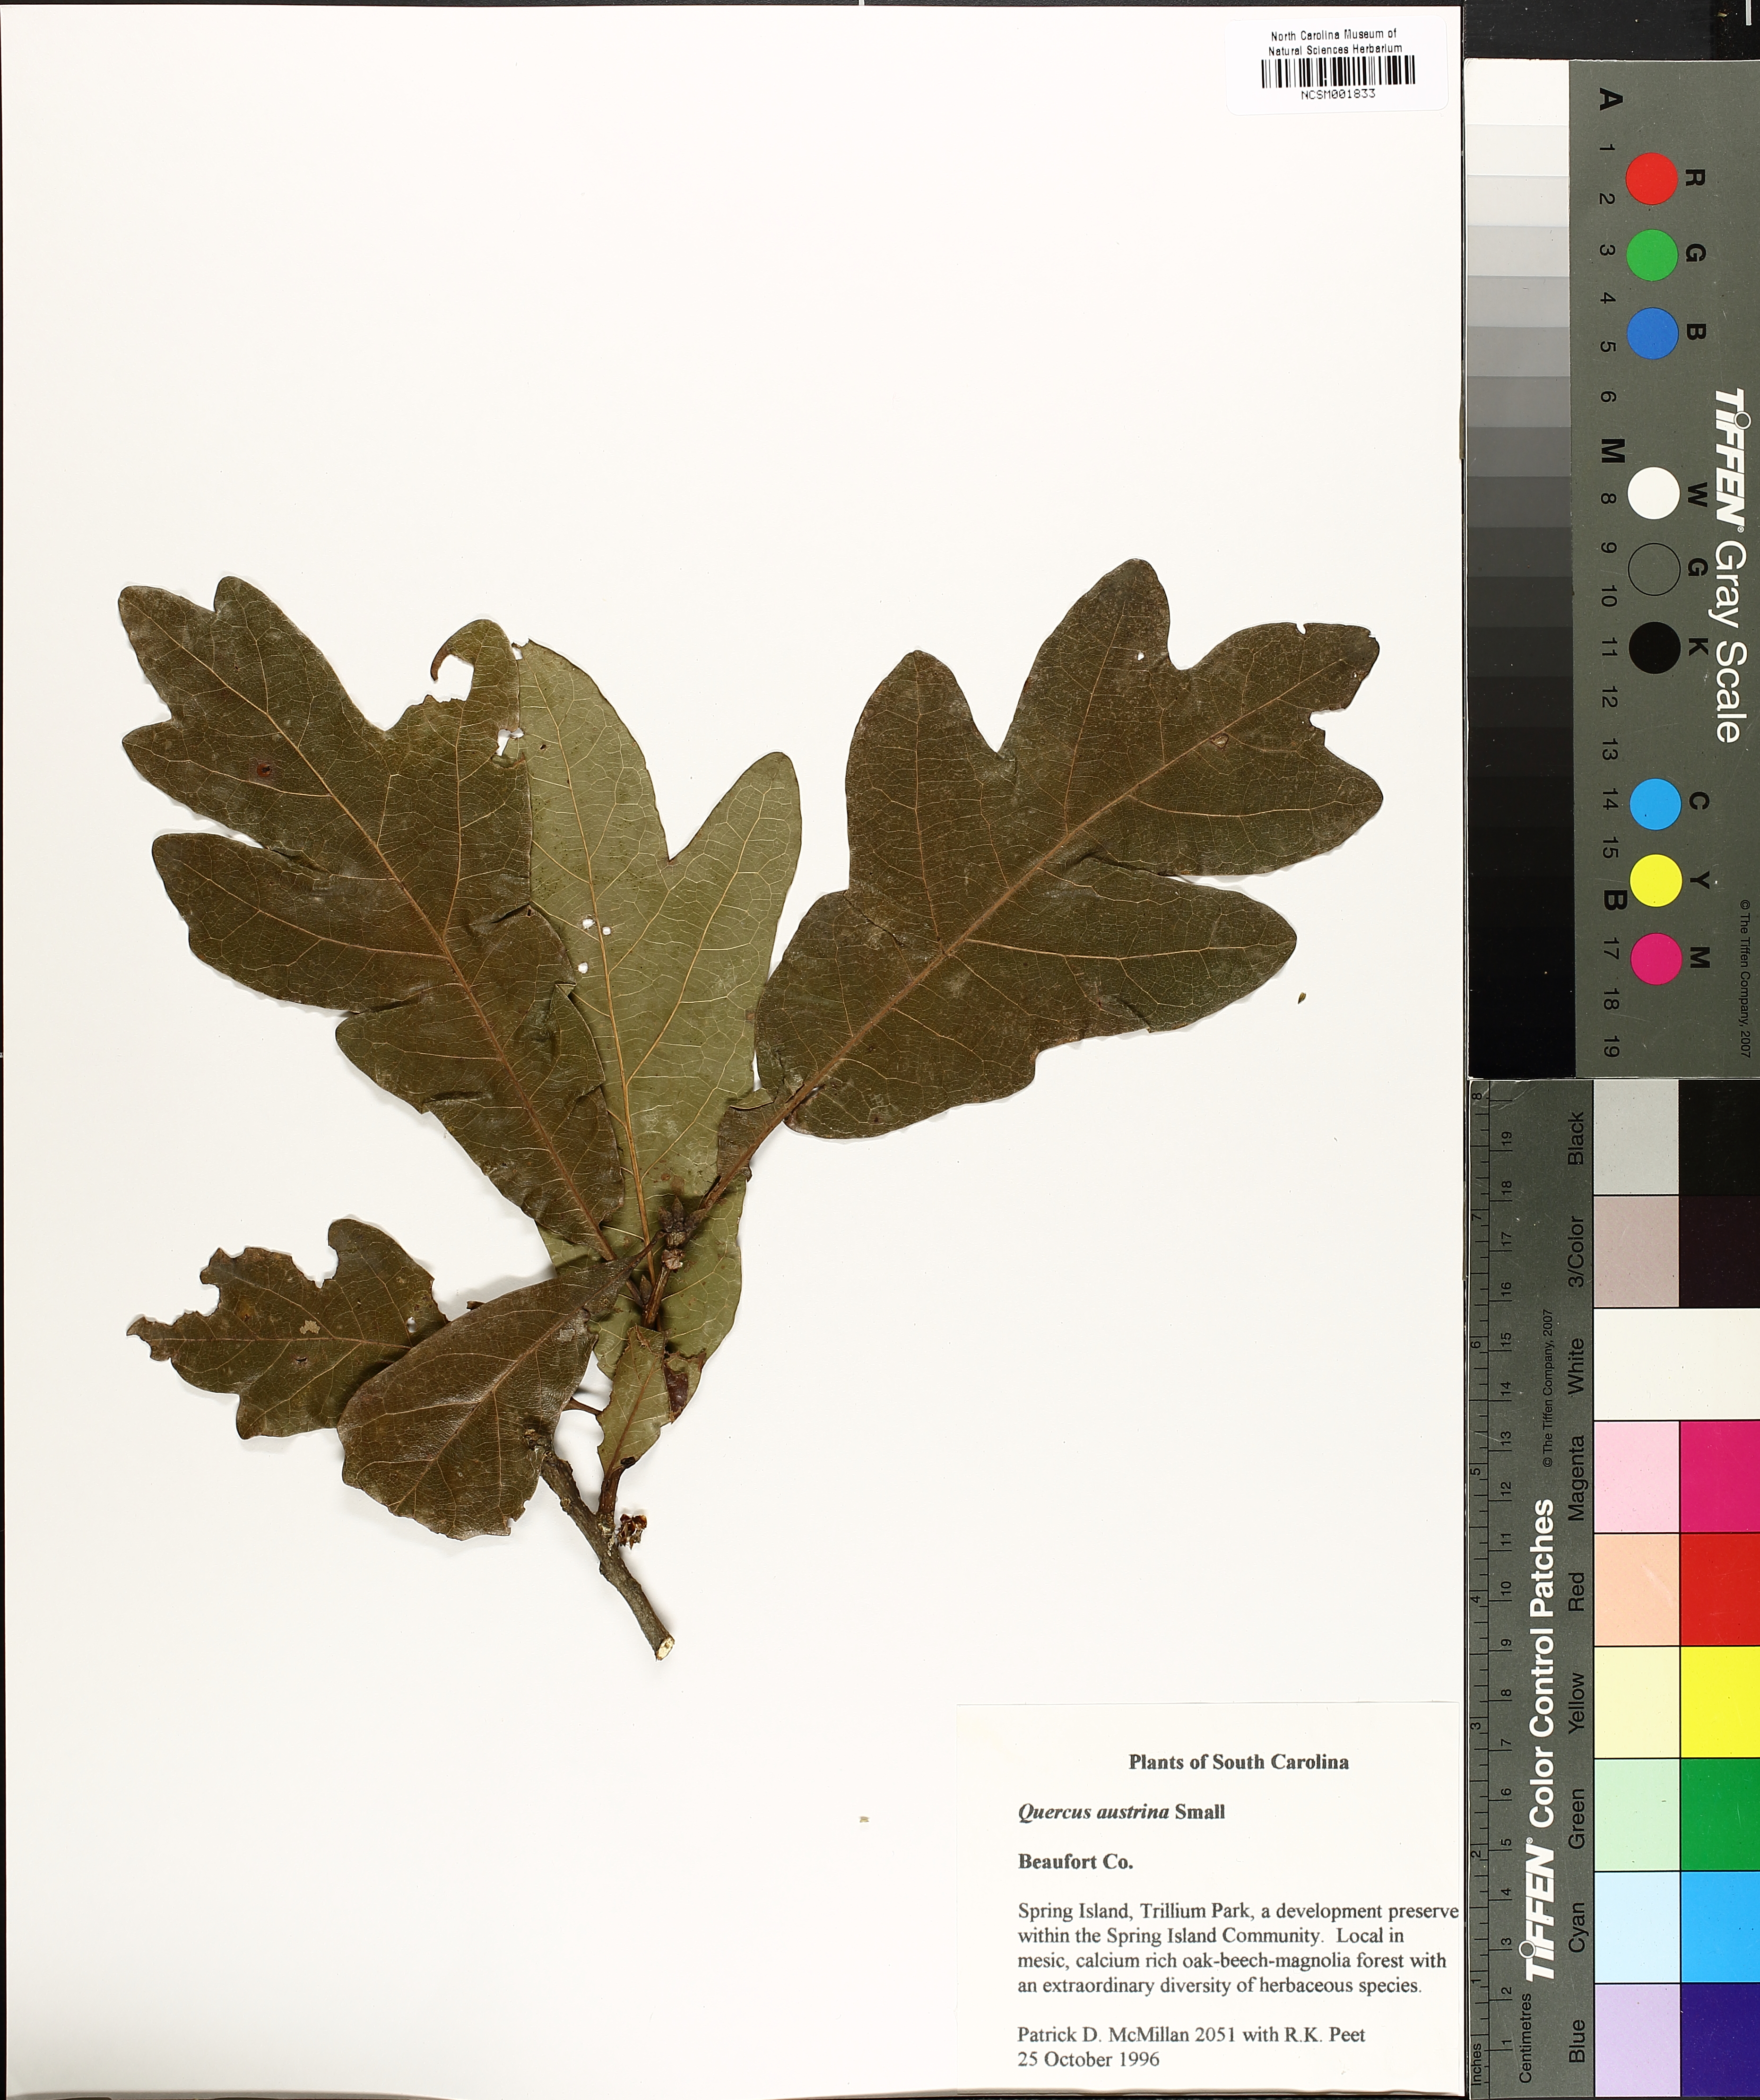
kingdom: Plantae
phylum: Tracheophyta
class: Magnoliopsida
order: Fagales
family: Fagaceae
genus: Quercus
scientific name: Quercus austrina
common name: Bastard white oak
